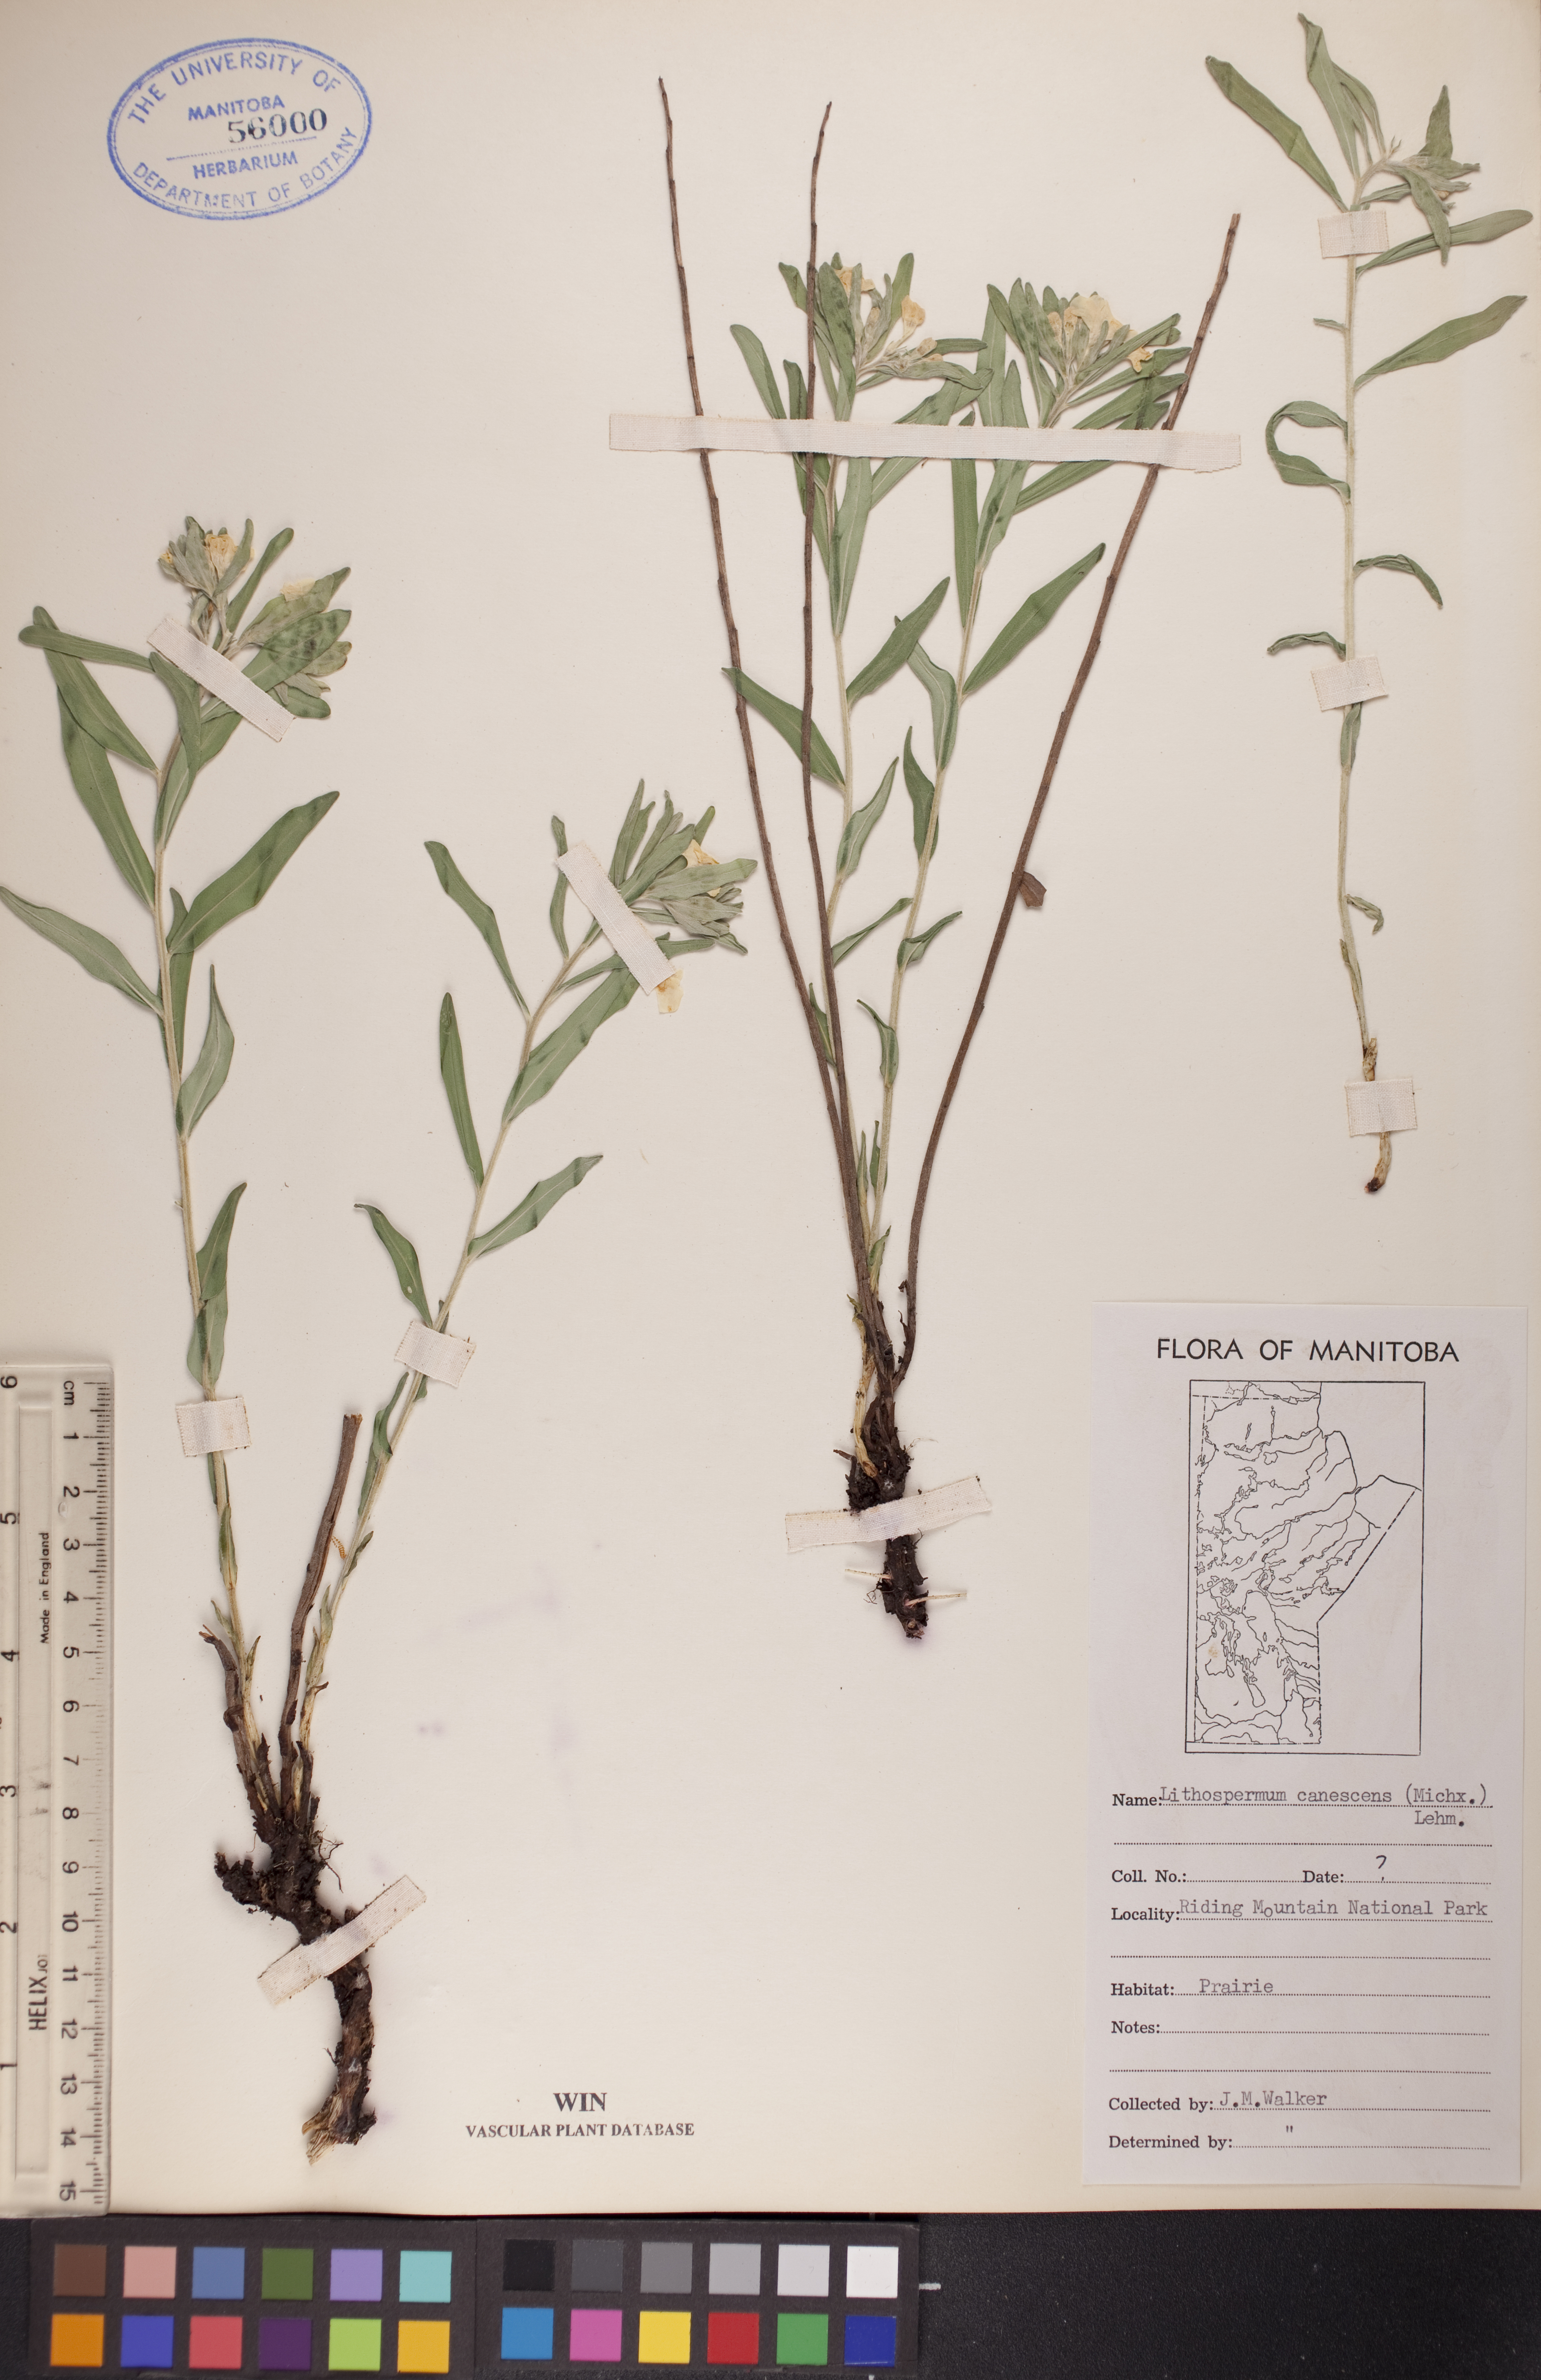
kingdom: Plantae
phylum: Tracheophyta
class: Magnoliopsida
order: Boraginales
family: Boraginaceae
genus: Lithospermum
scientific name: Lithospermum canescens
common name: Hoary puccoon
